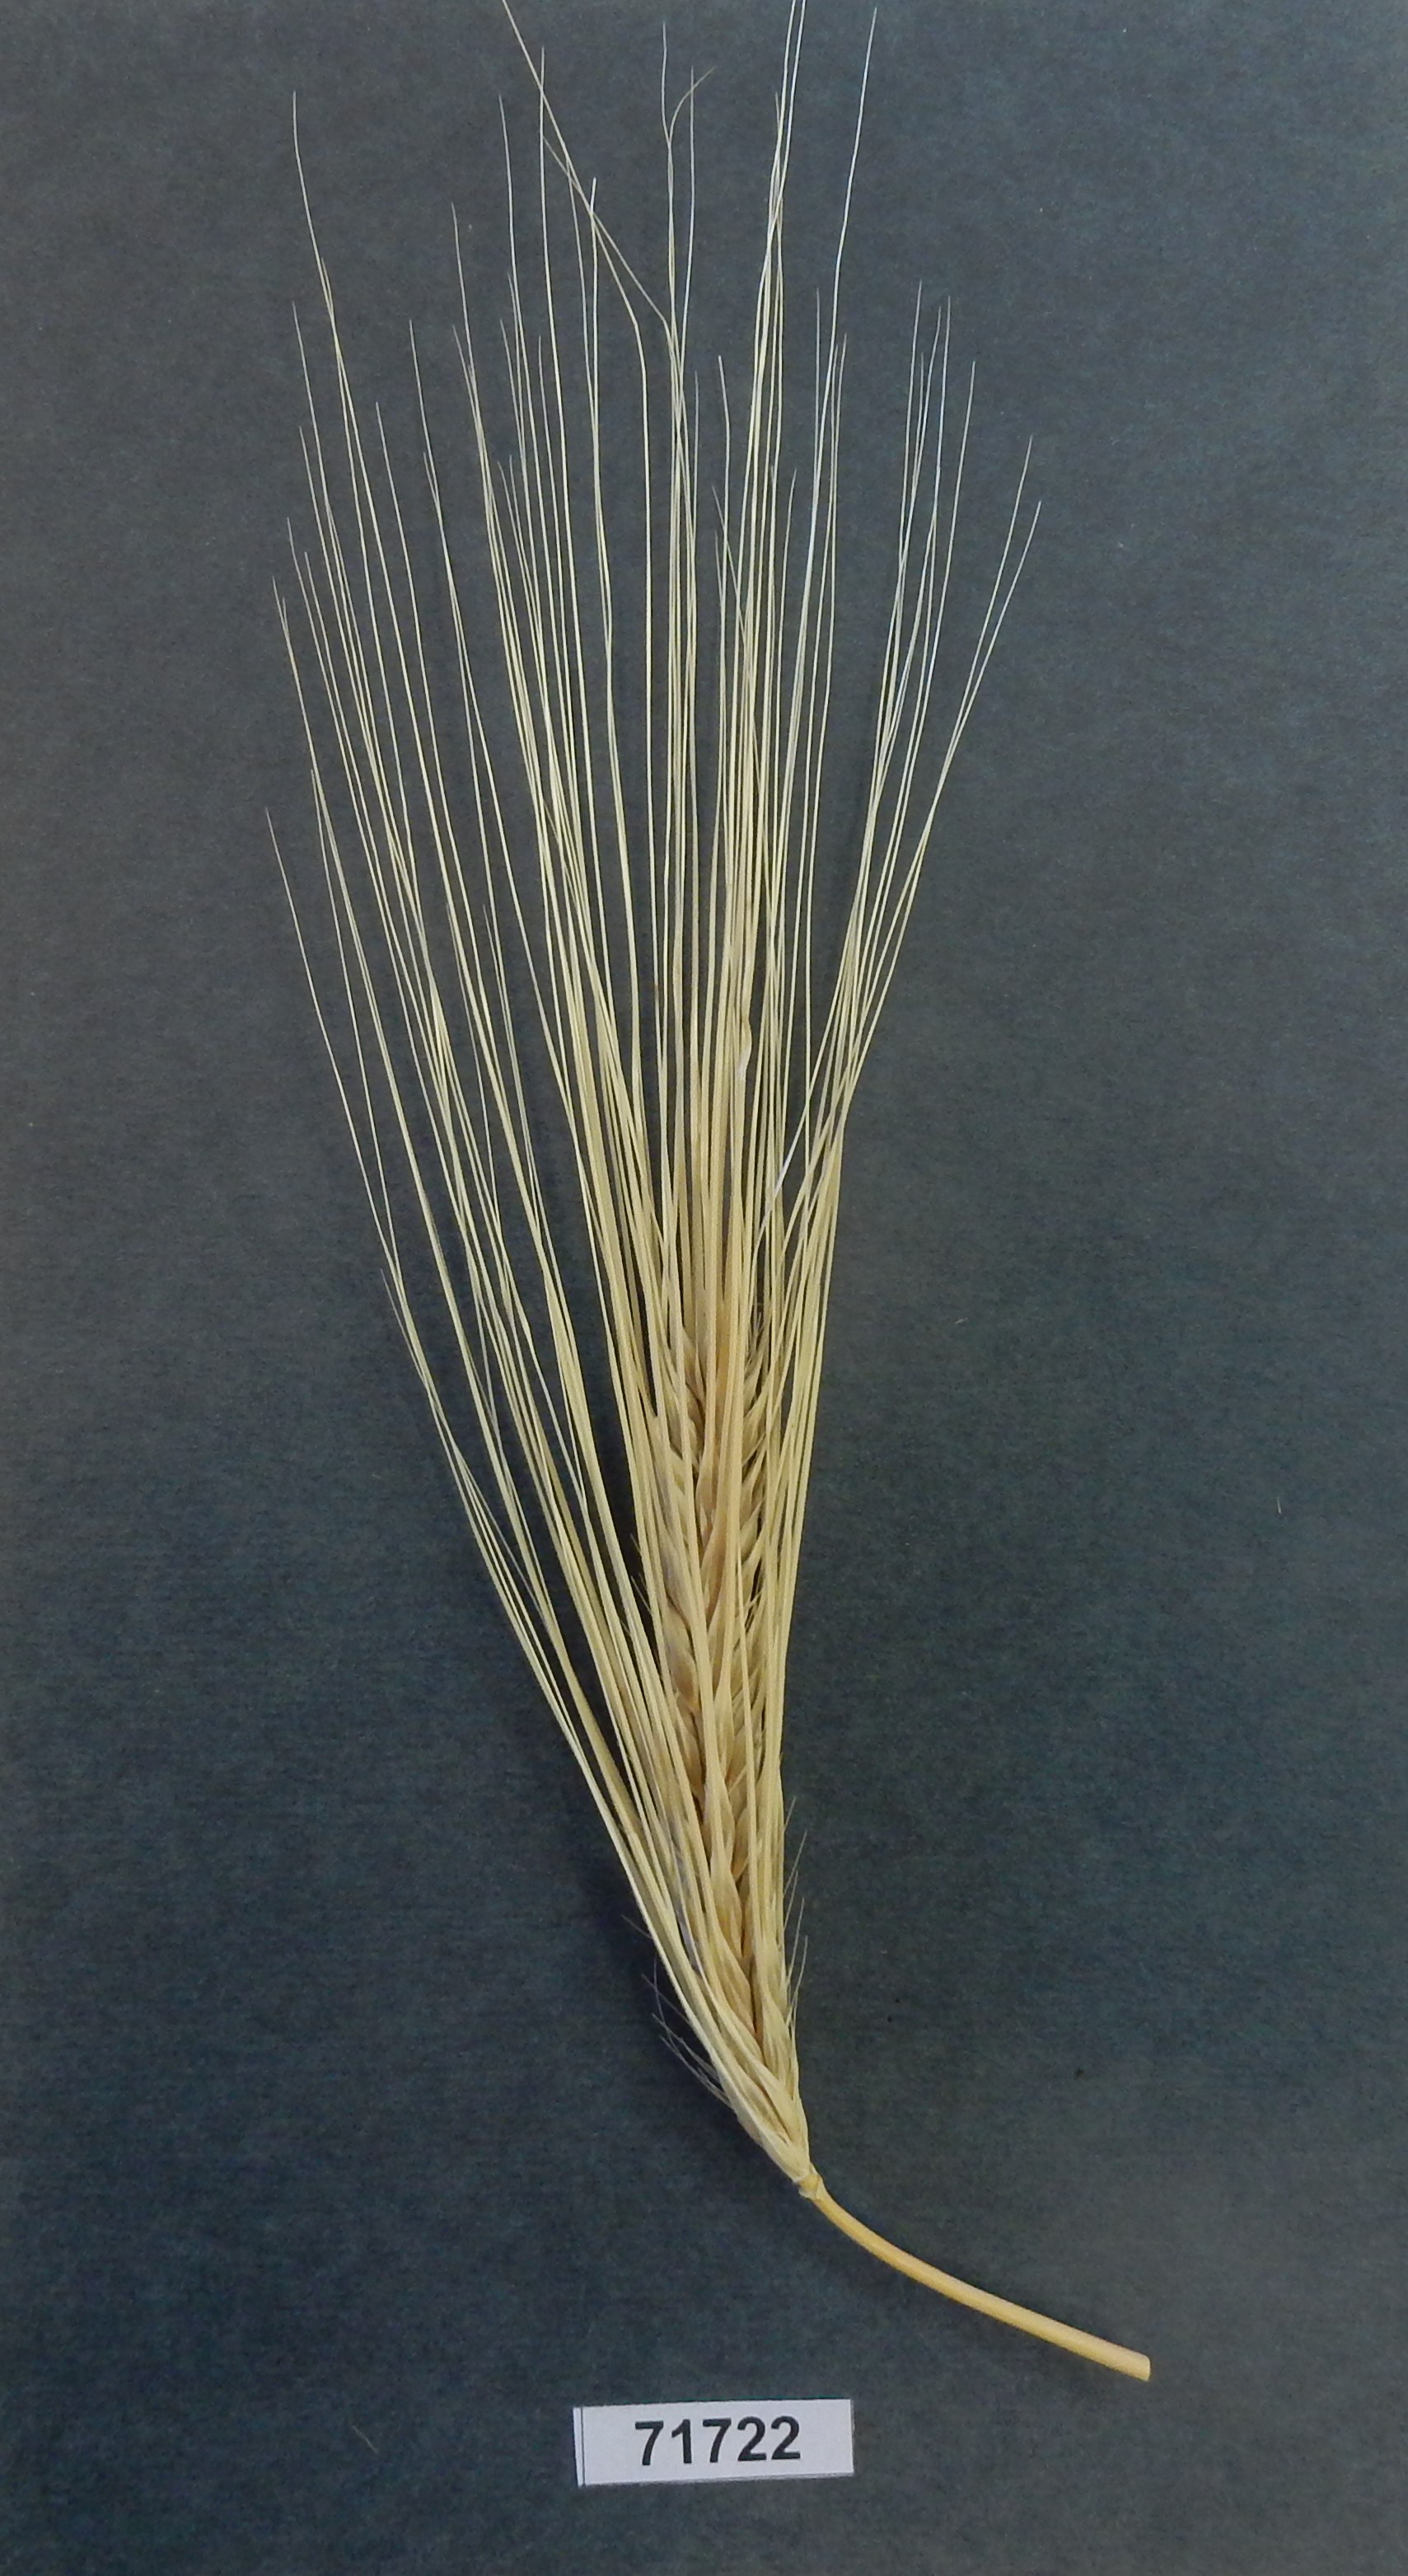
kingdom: Plantae
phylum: Tracheophyta
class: Liliopsida
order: Poales
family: Poaceae
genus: Hordeum
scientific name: Hordeum vulgare
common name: Barley
